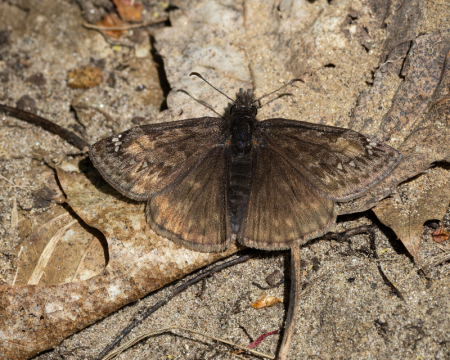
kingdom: Animalia
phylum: Arthropoda
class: Insecta
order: Lepidoptera
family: Hesperiidae
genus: Gesta
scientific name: Gesta
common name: Juvenal's Duskywing
